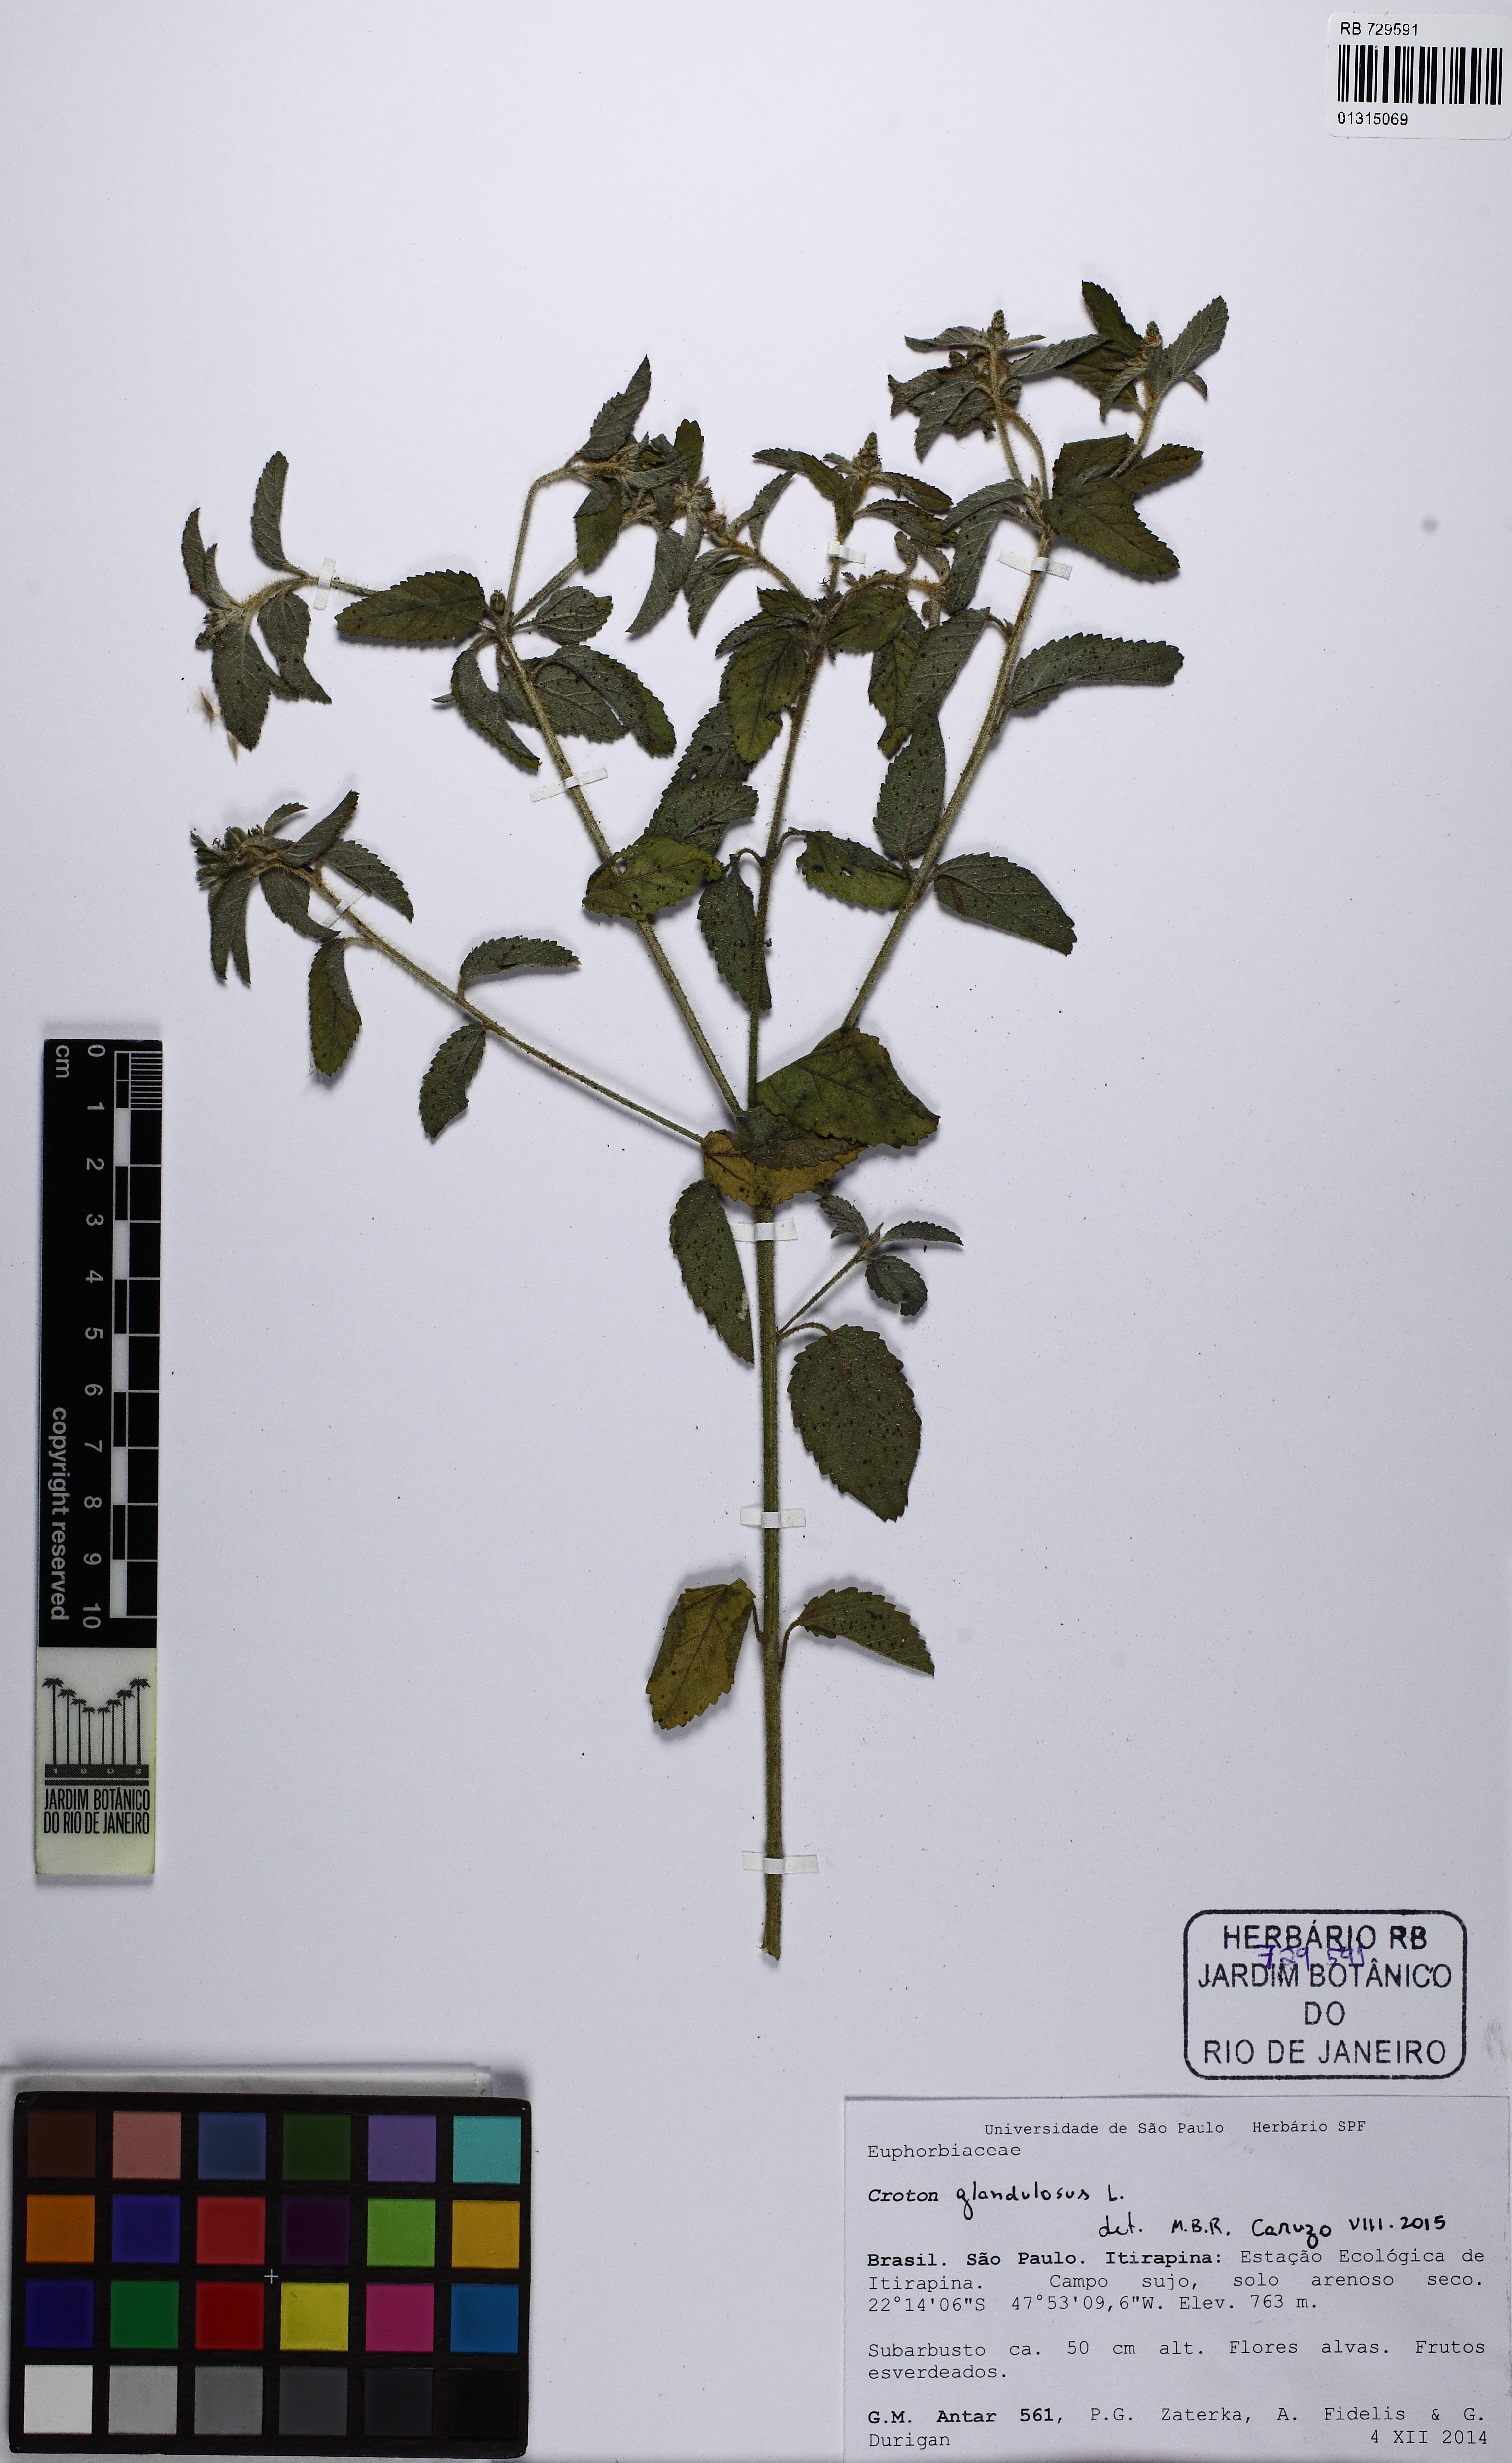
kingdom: Plantae
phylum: Tracheophyta
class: Magnoliopsida
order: Malpighiales
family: Euphorbiaceae
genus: Croton
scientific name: Croton glandulosus
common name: Tropic croton
